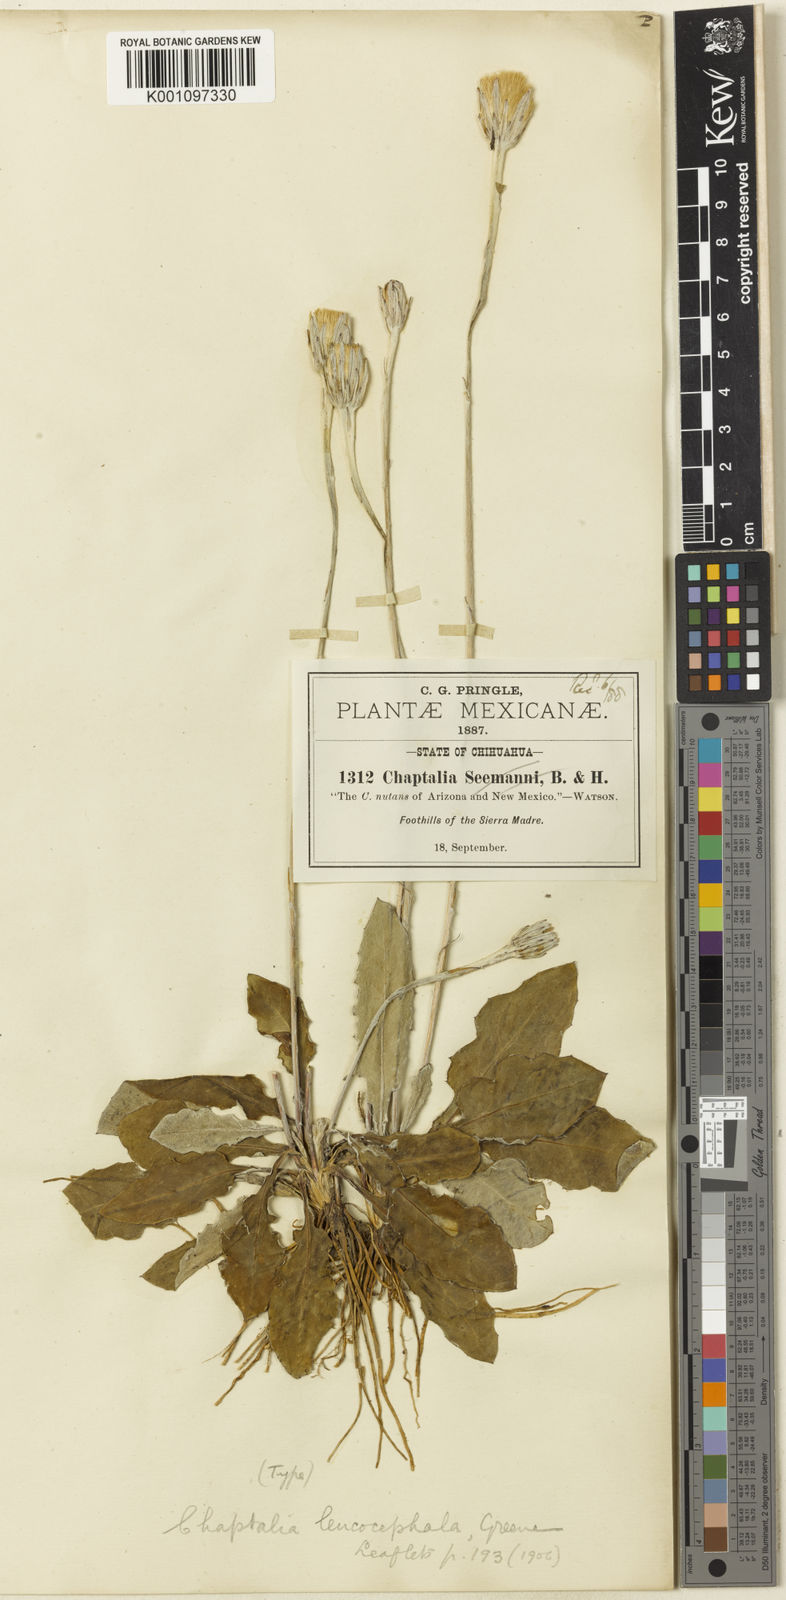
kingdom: Plantae
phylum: Tracheophyta
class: Magnoliopsida
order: Asterales
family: Asteraceae
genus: Leibnitzia
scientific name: Leibnitzia lyrata
